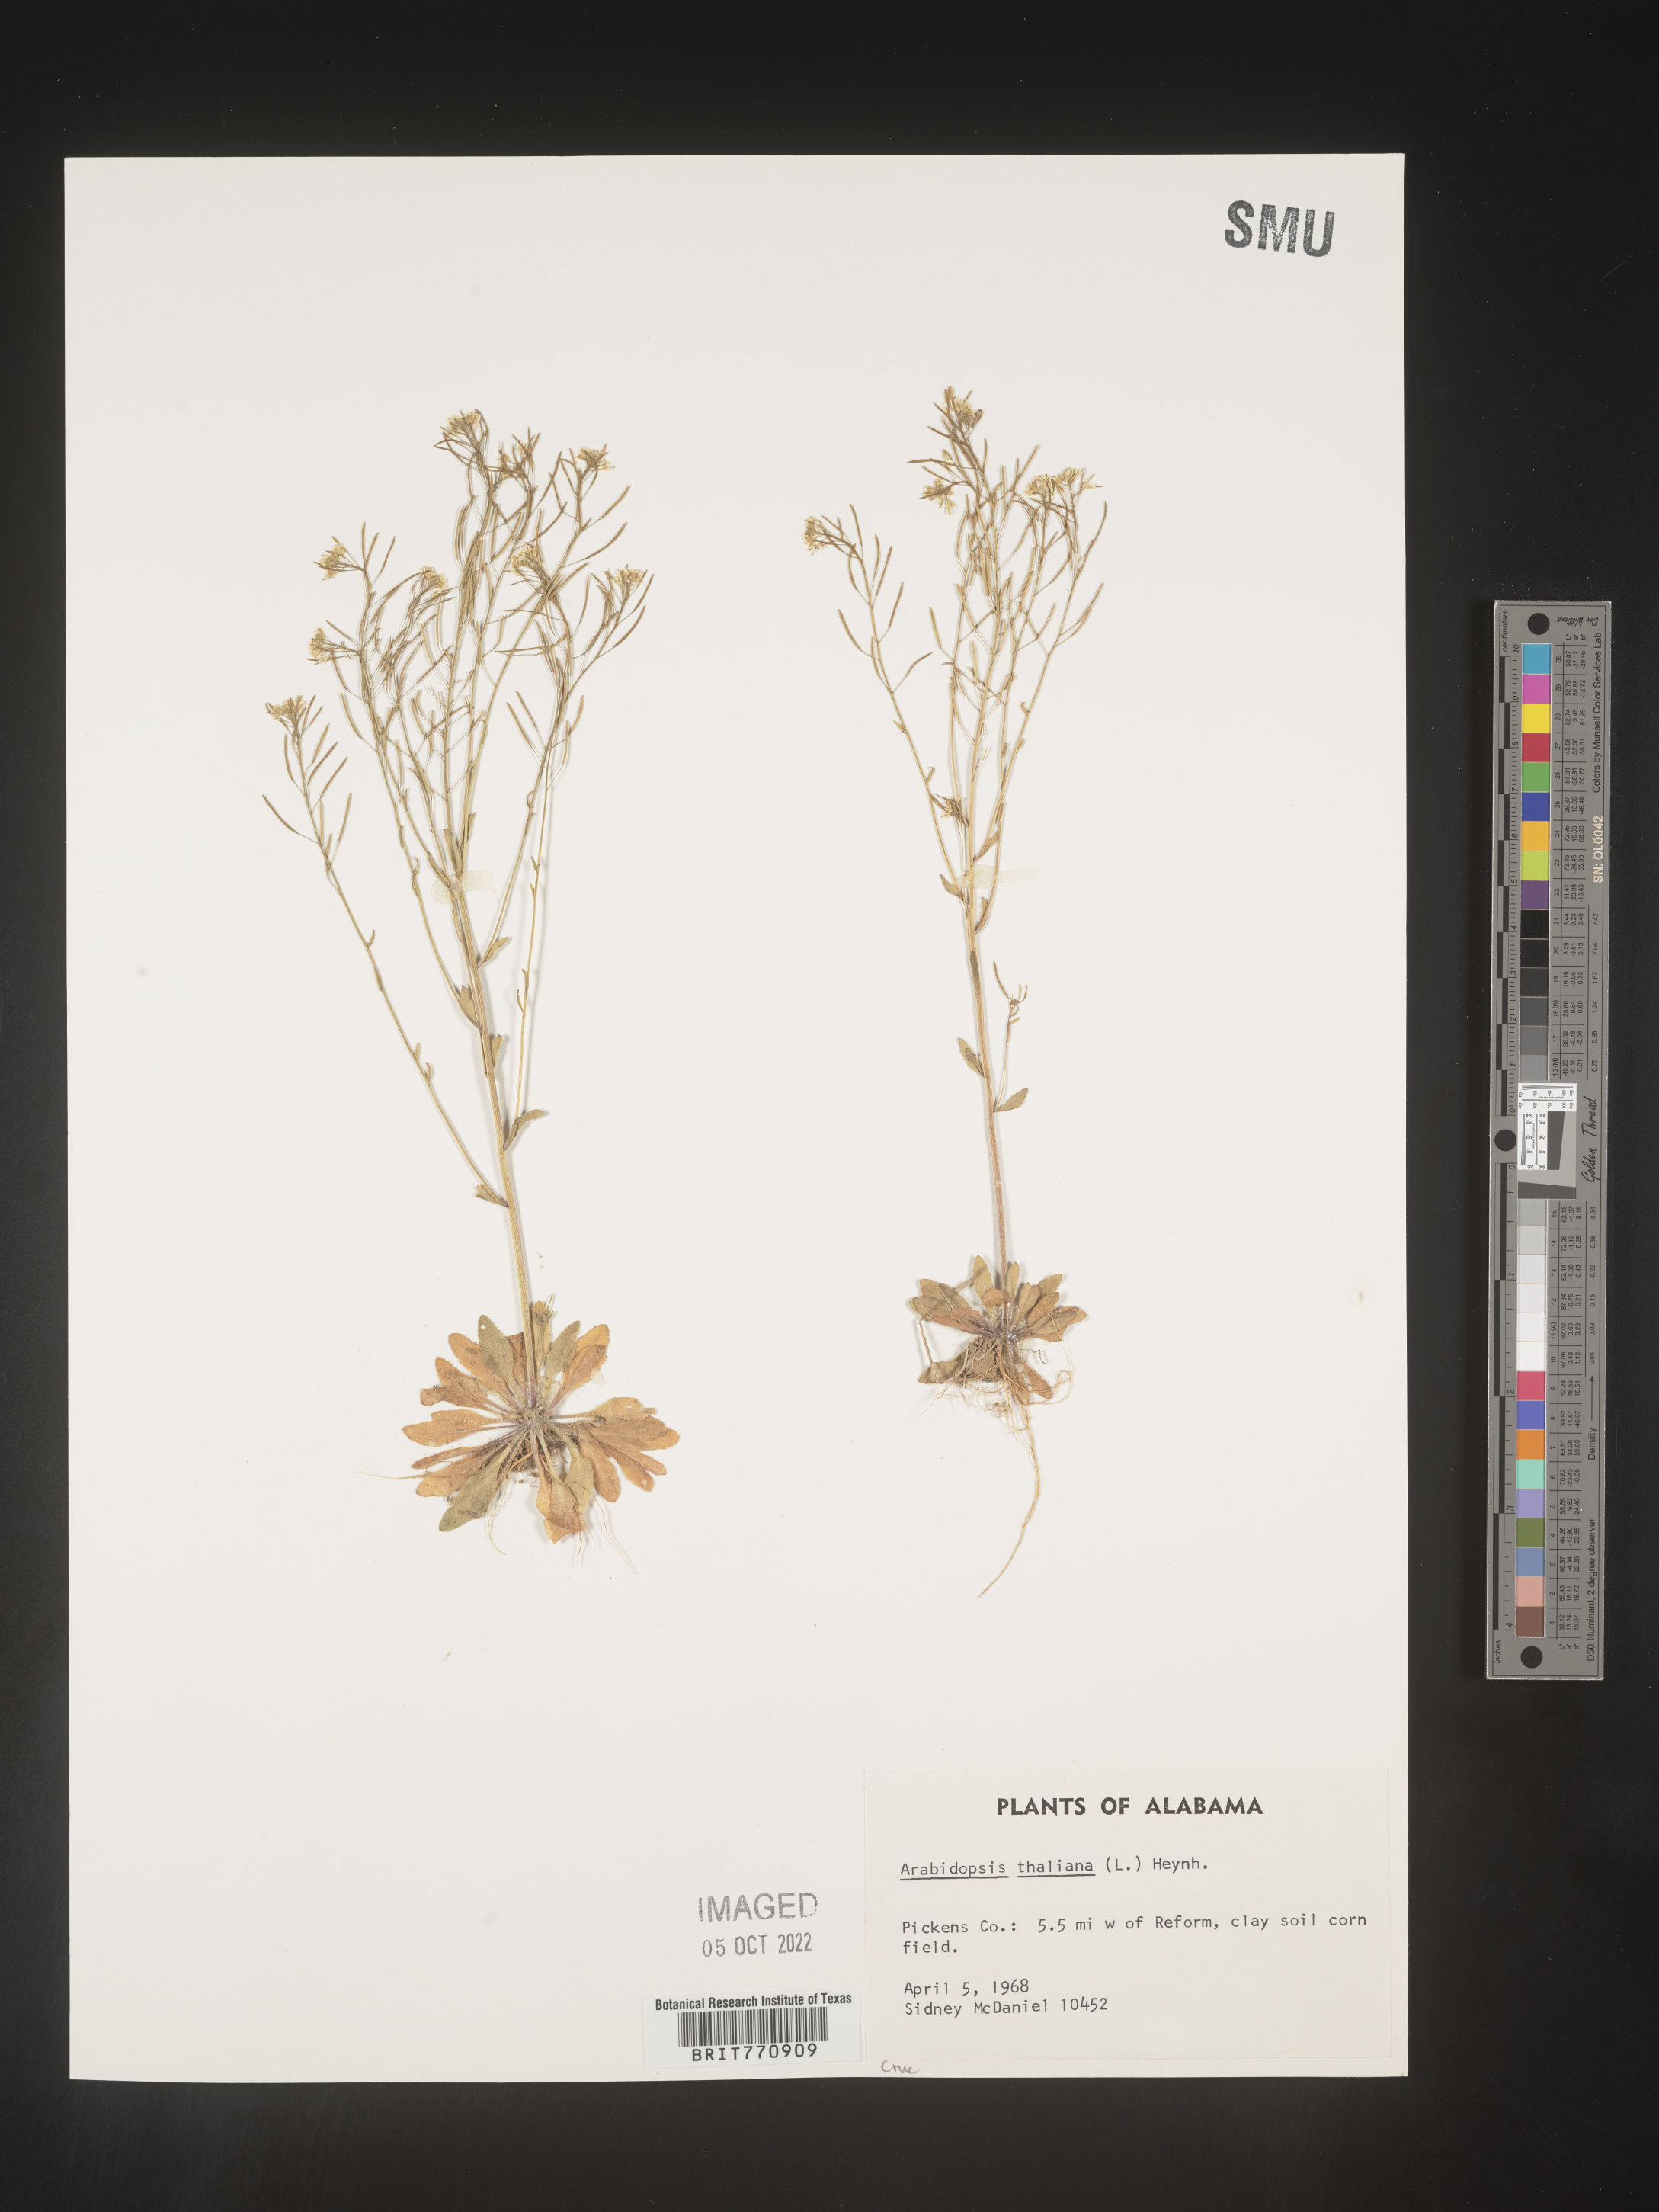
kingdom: Plantae
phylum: Tracheophyta
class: Magnoliopsida
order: Brassicales
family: Brassicaceae
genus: Arabidopsis
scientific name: Arabidopsis thaliana
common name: Thale cress
